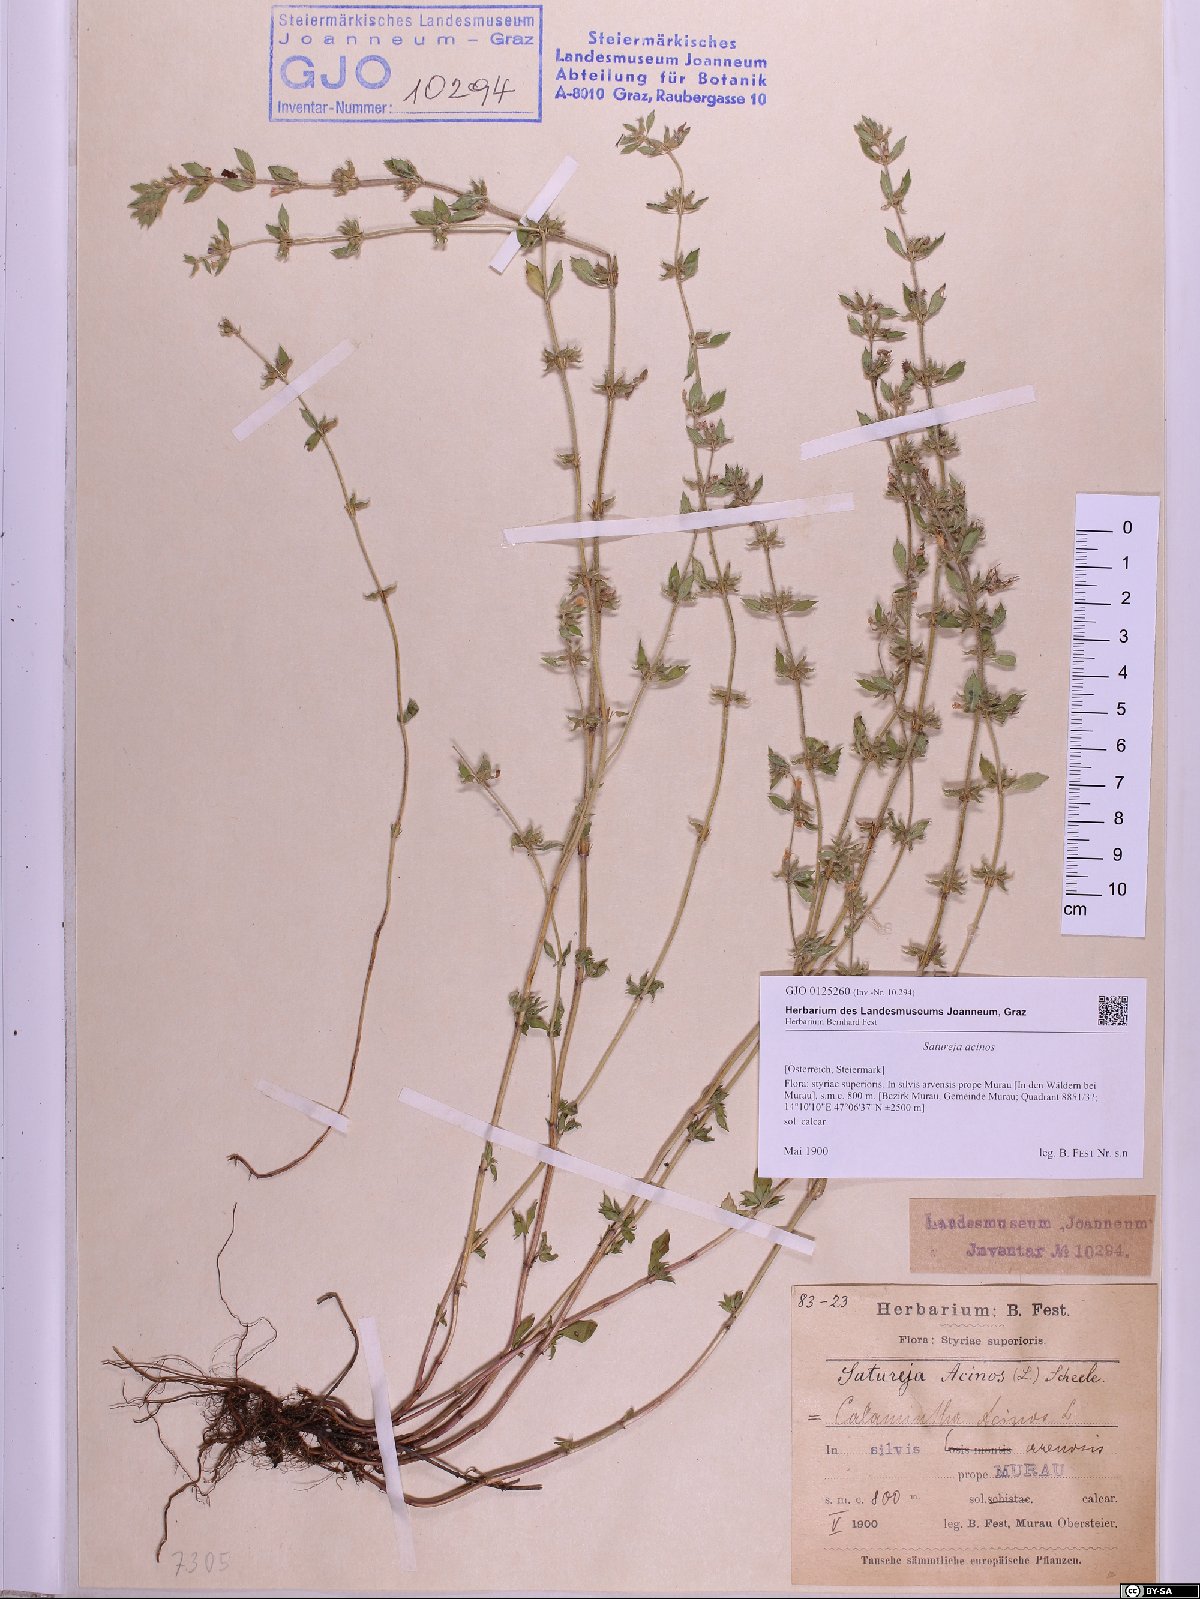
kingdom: Plantae
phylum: Tracheophyta
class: Magnoliopsida
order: Lamiales
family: Lamiaceae
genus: Clinopodium
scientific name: Clinopodium acinos
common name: Basil thyme
